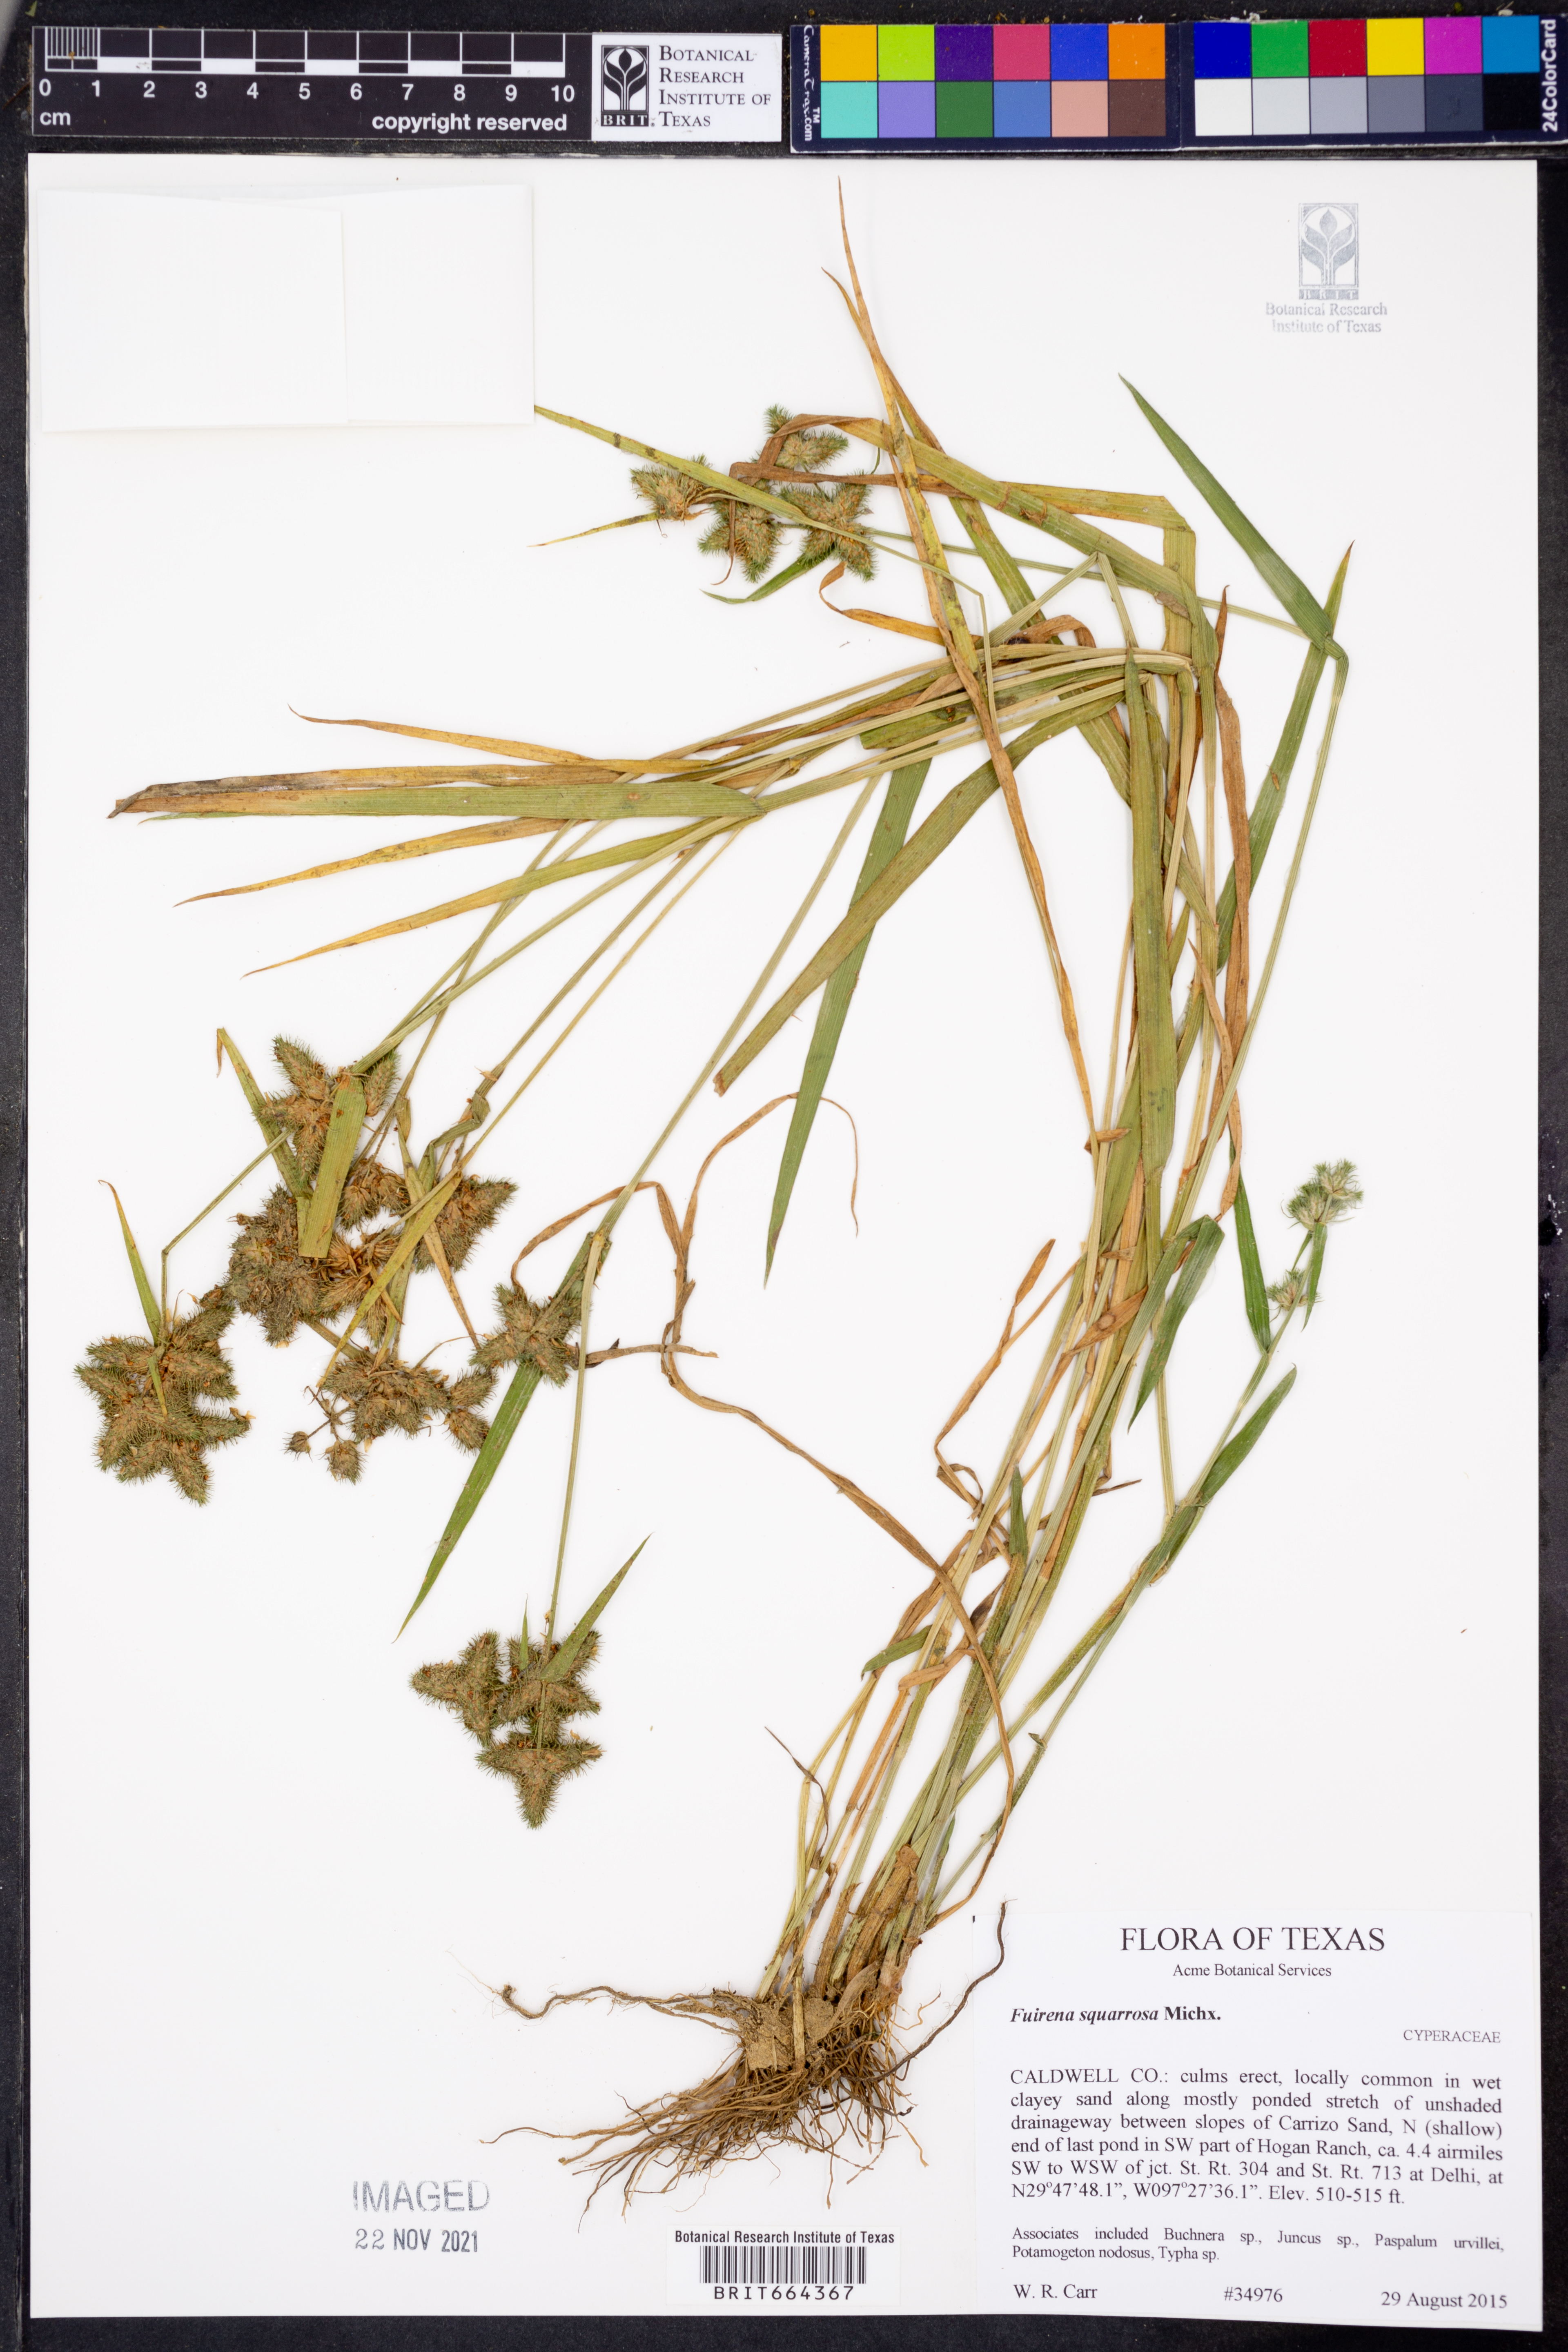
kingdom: Plantae
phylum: Tracheophyta
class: Liliopsida
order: Poales
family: Cyperaceae
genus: Fuirena
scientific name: Fuirena squarrosa
